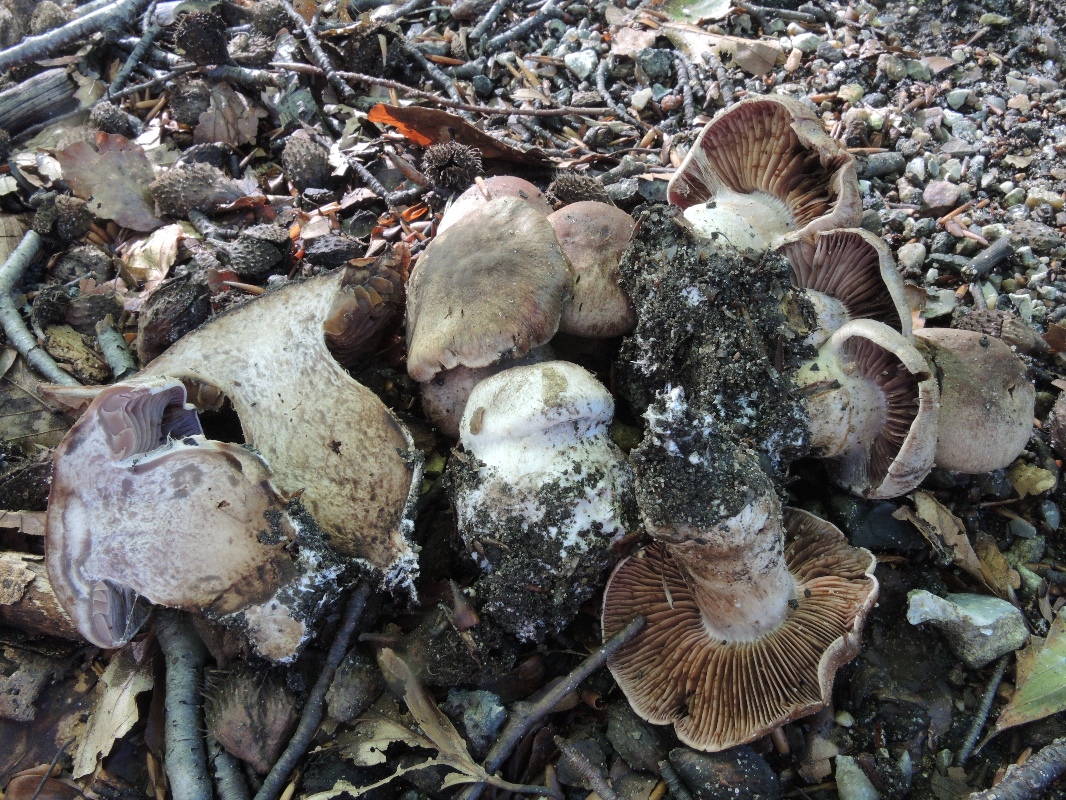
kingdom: Fungi
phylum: Basidiomycota
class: Agaricomycetes
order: Agaricales
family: Cortinariaceae
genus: Cortinarius
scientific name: Cortinarius
